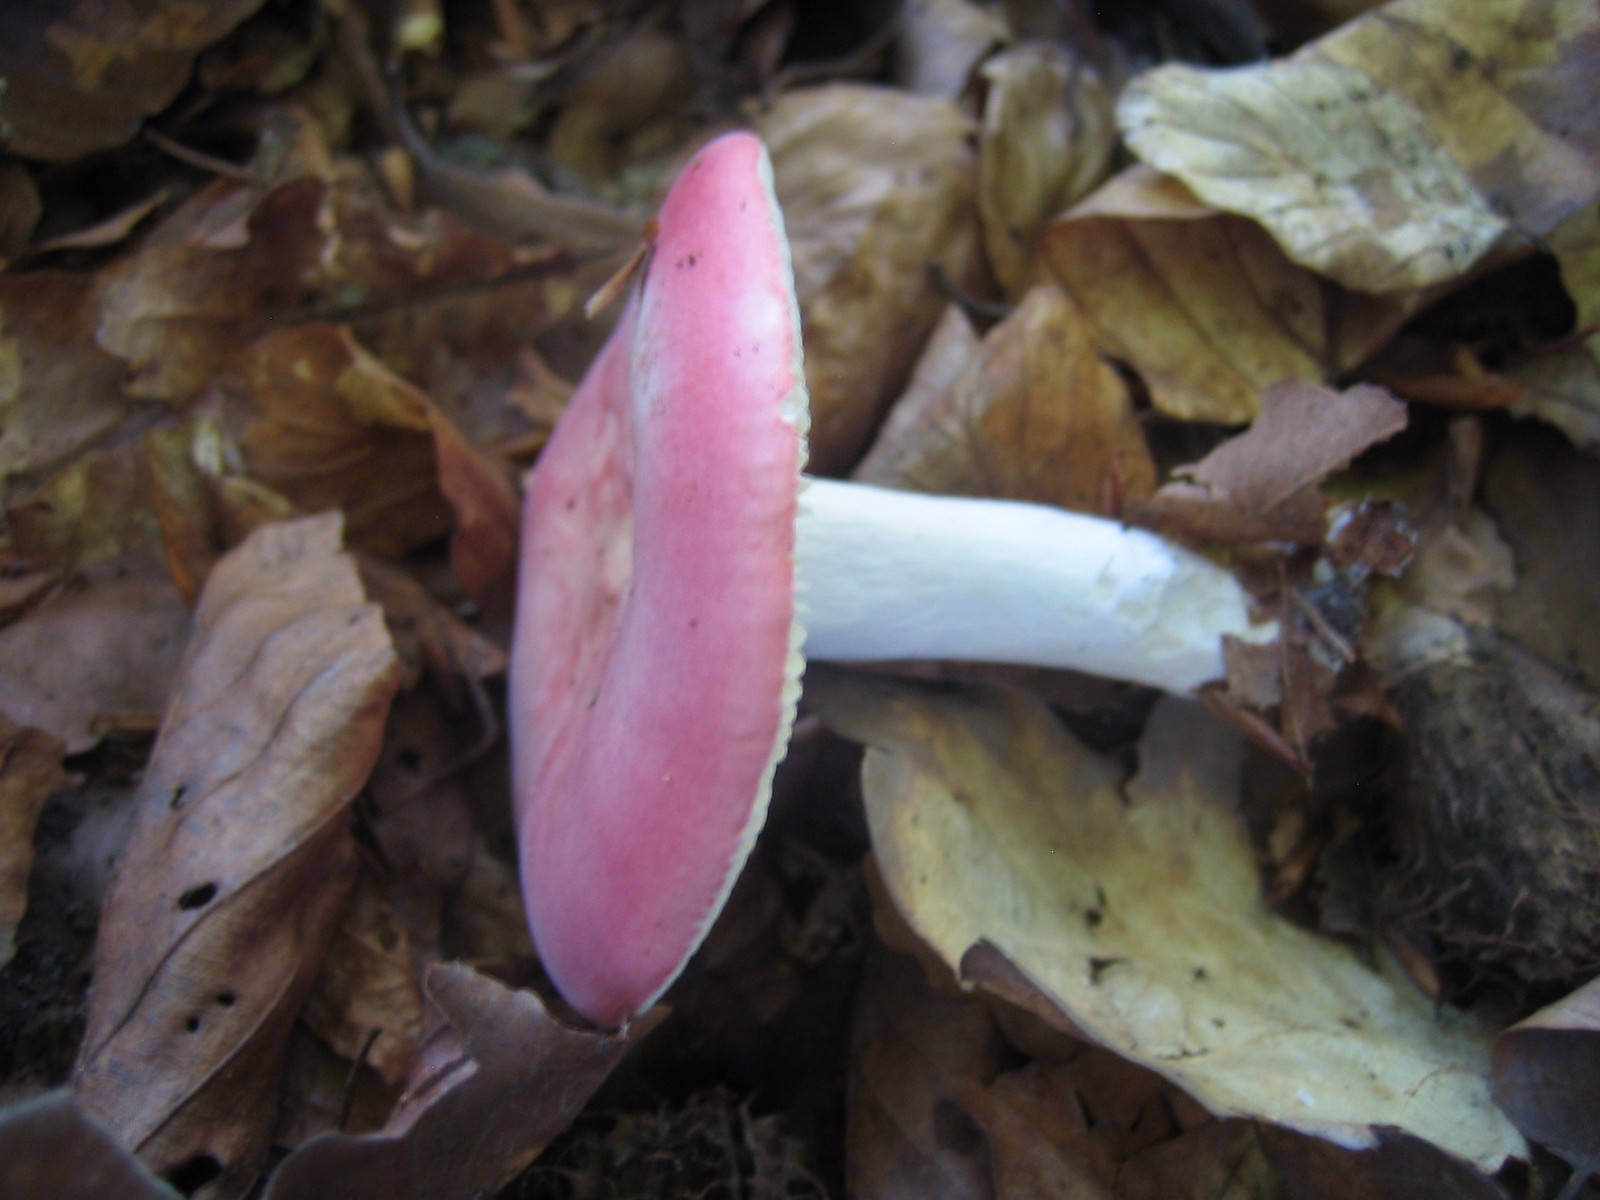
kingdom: Fungi
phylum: Basidiomycota
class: Agaricomycetes
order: Russulales
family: Russulaceae
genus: Russula
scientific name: Russula
